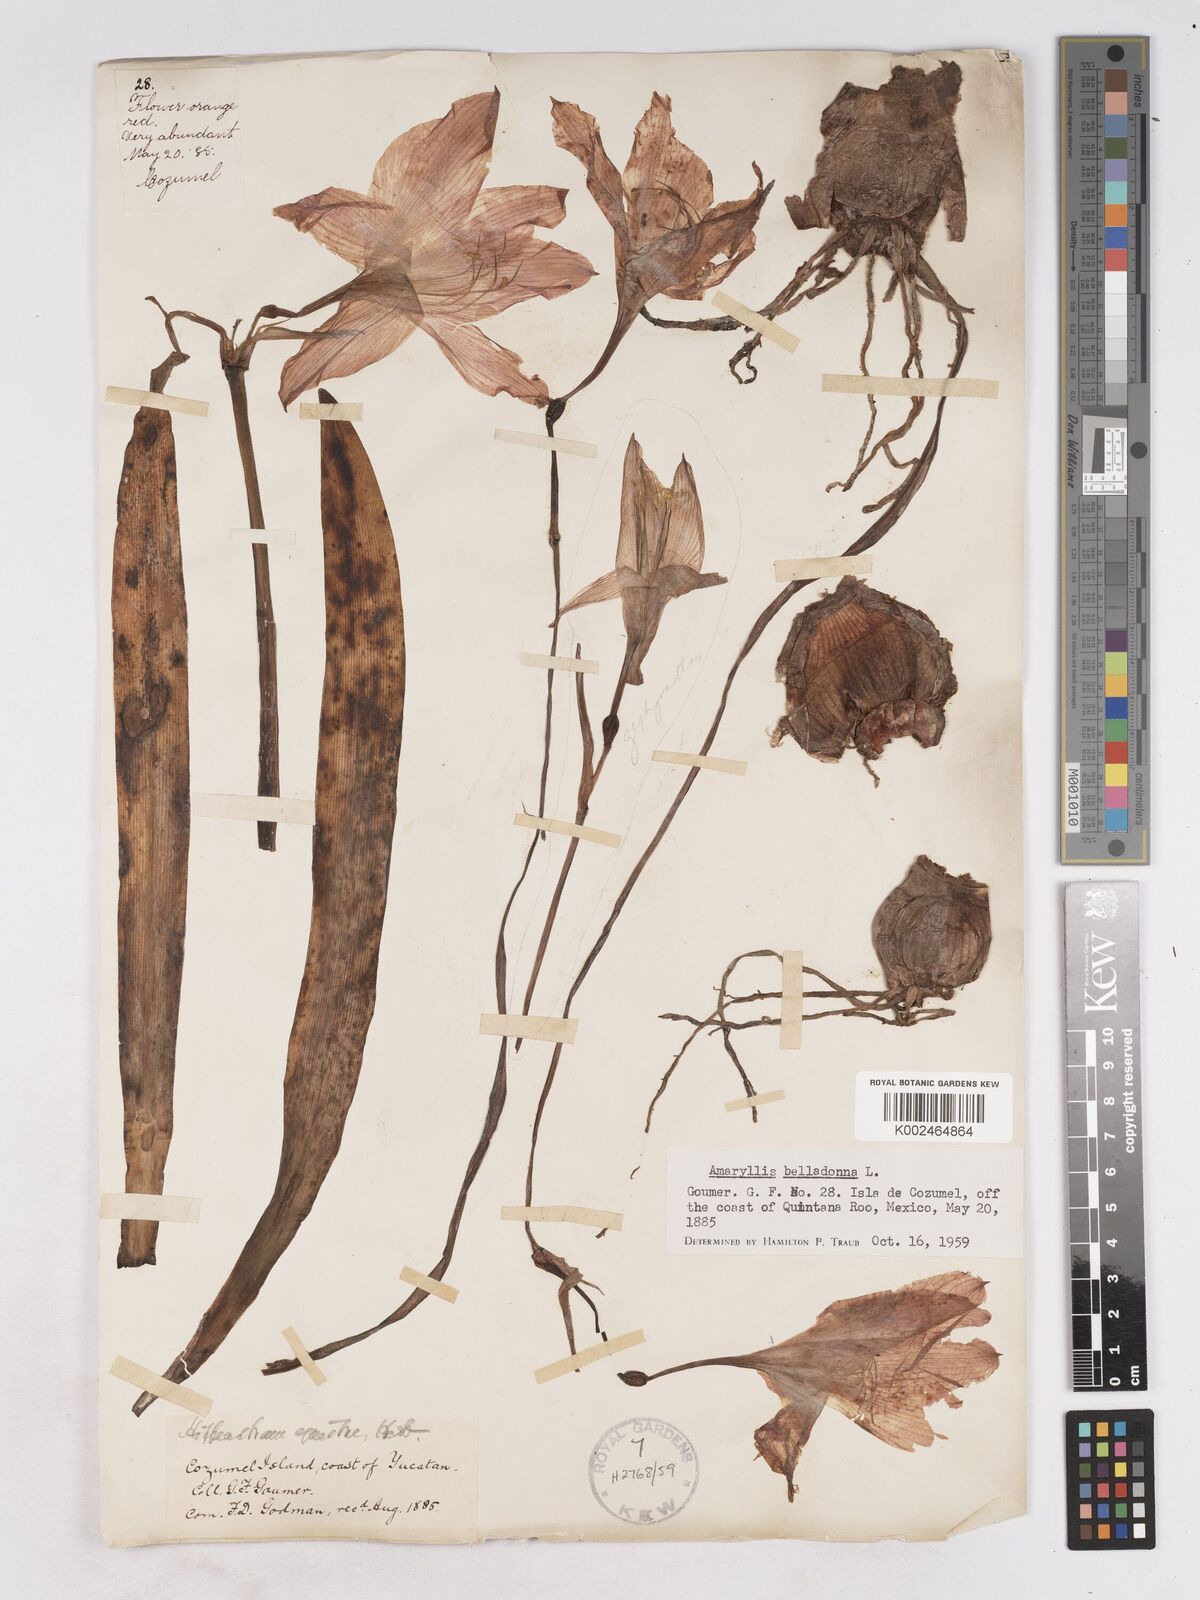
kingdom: Plantae
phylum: Tracheophyta
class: Liliopsida
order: Asparagales
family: Amaryllidaceae
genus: Hippeastrum
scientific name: Hippeastrum puniceum
